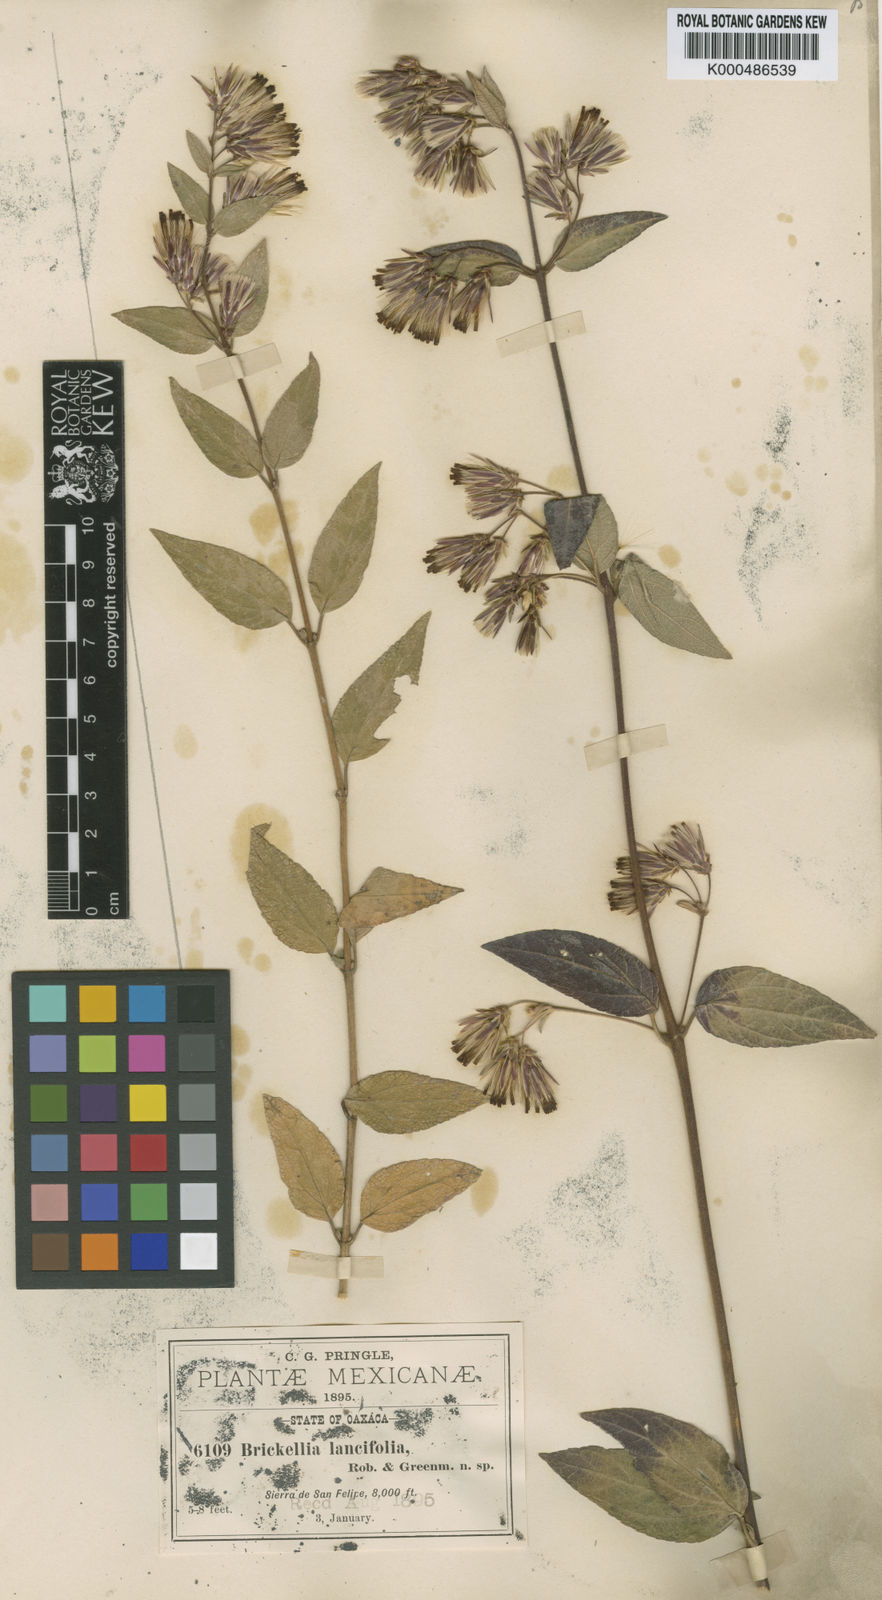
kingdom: Plantae
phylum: Tracheophyta
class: Magnoliopsida
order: Asterales
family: Asteraceae
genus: Brickellia
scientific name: Brickellia pendula
